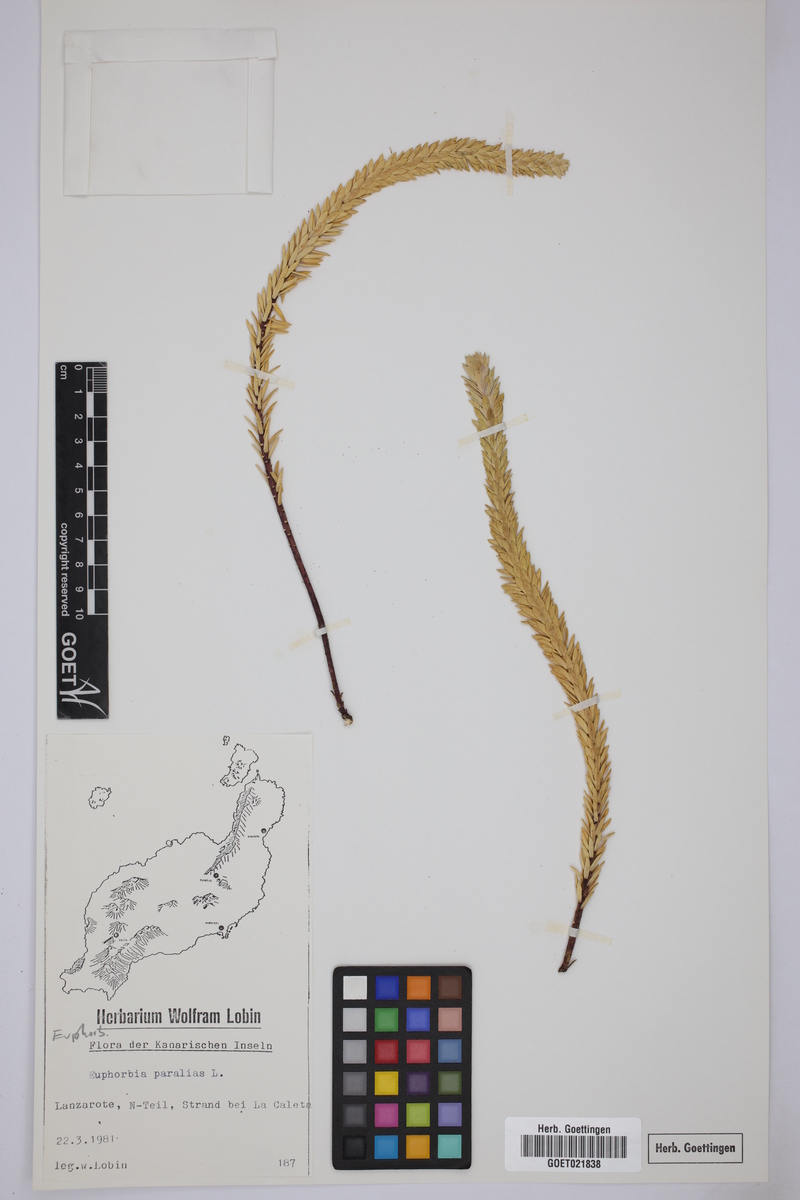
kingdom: Plantae
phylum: Tracheophyta
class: Magnoliopsida
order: Malpighiales
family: Euphorbiaceae
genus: Euphorbia
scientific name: Euphorbia paralias
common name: Sea spurge
